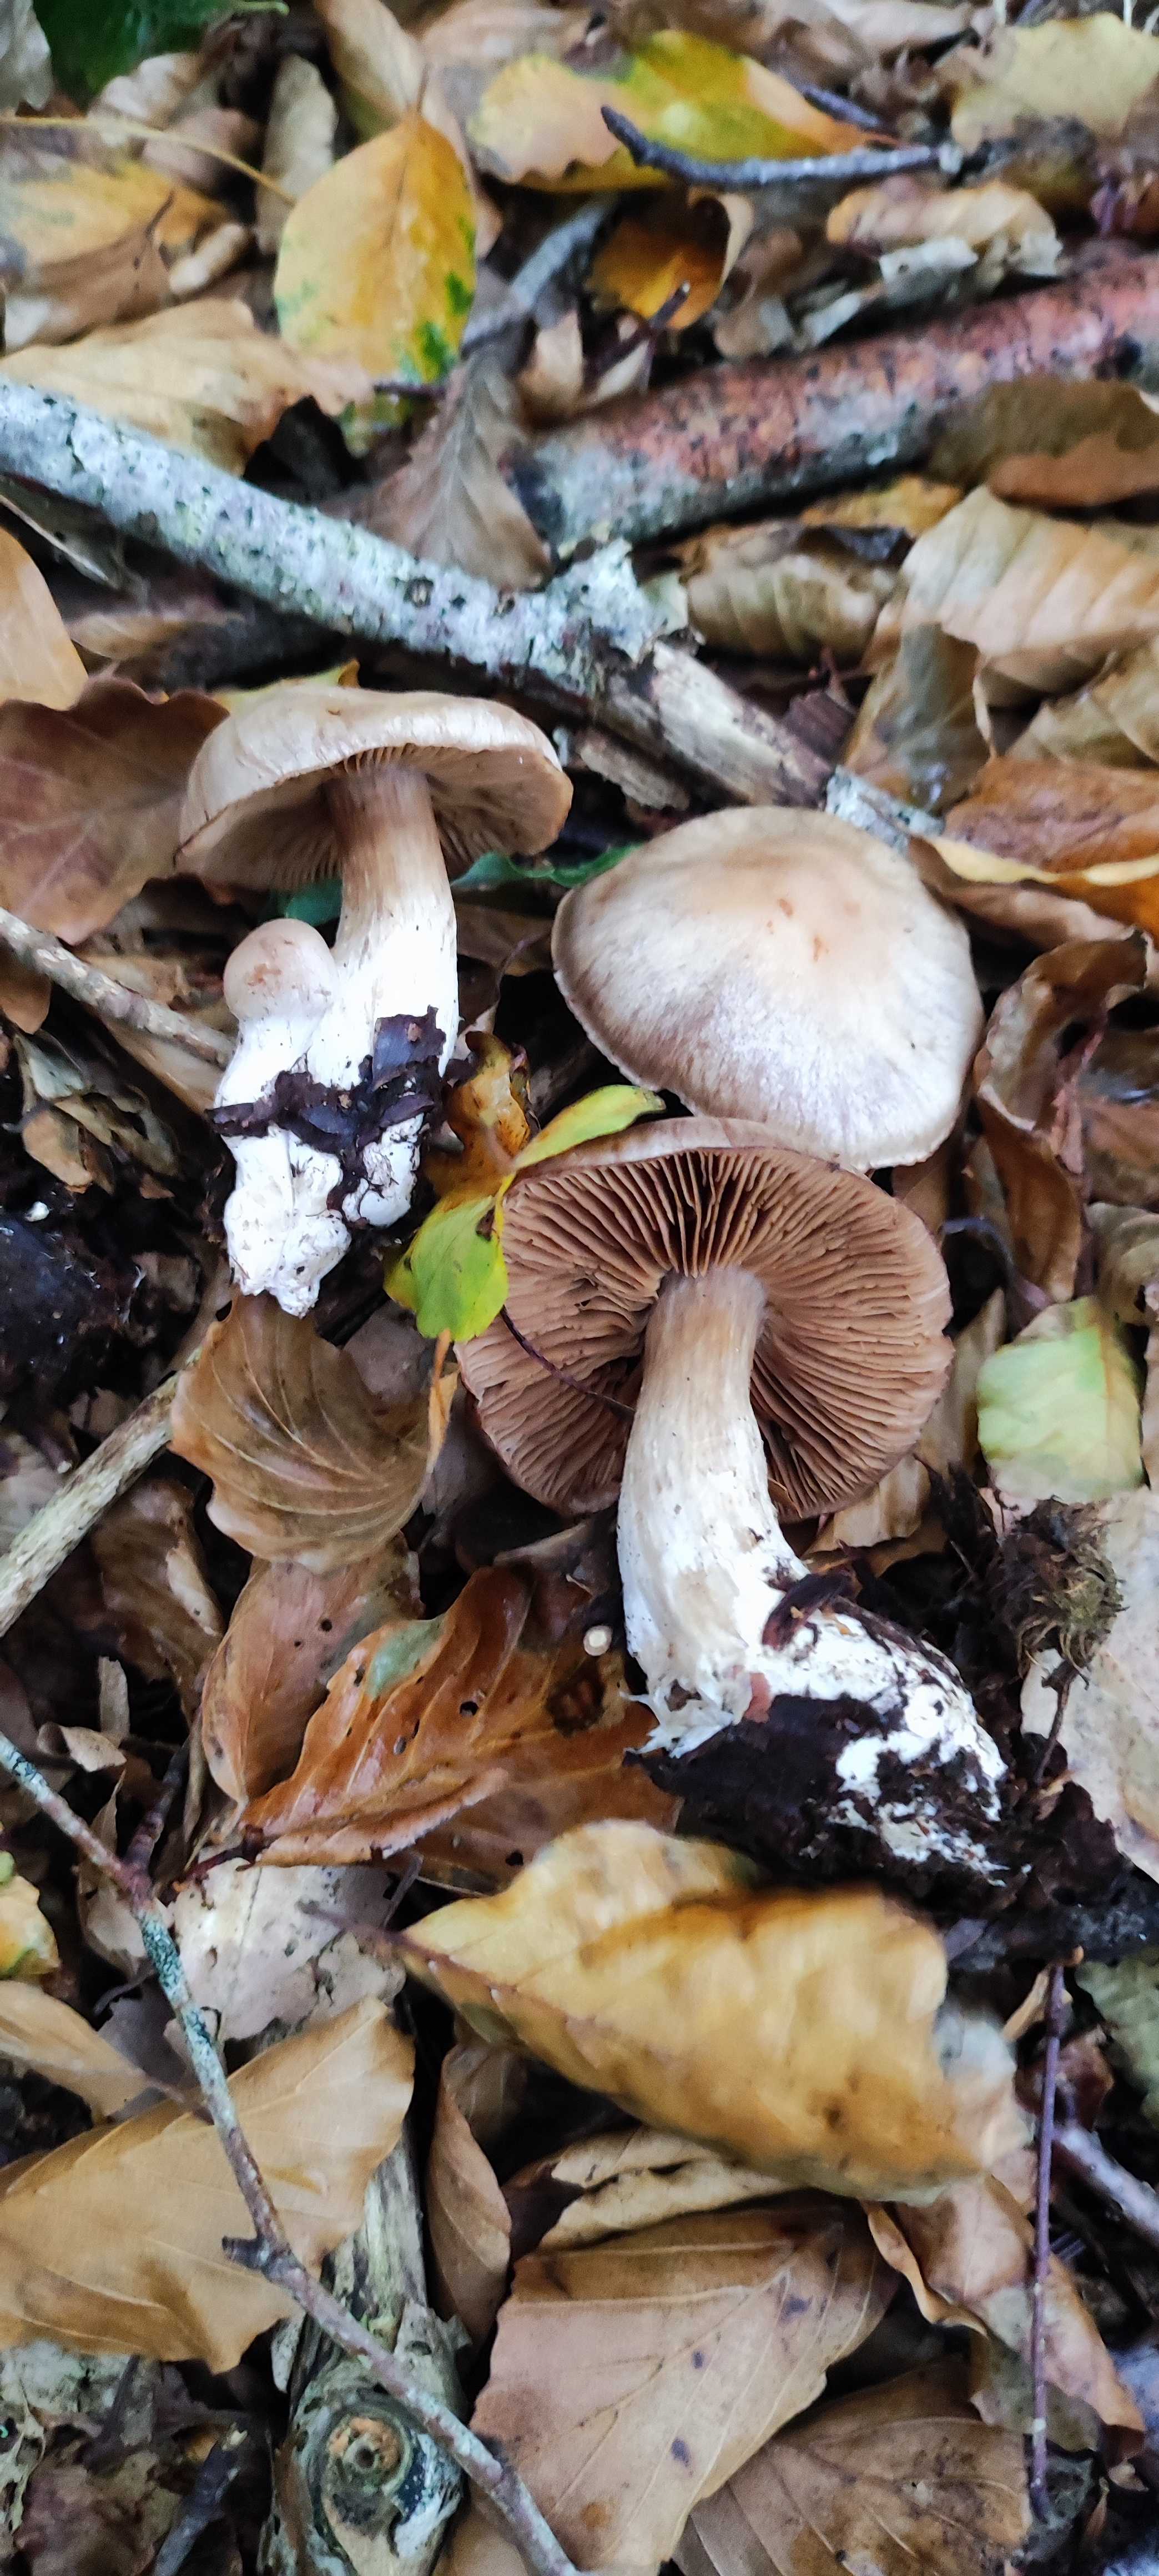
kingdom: Fungi
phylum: Basidiomycota
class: Agaricomycetes
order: Agaricales
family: Cortinariaceae
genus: Cortinarius
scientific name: Cortinarius claroplaniusculus
